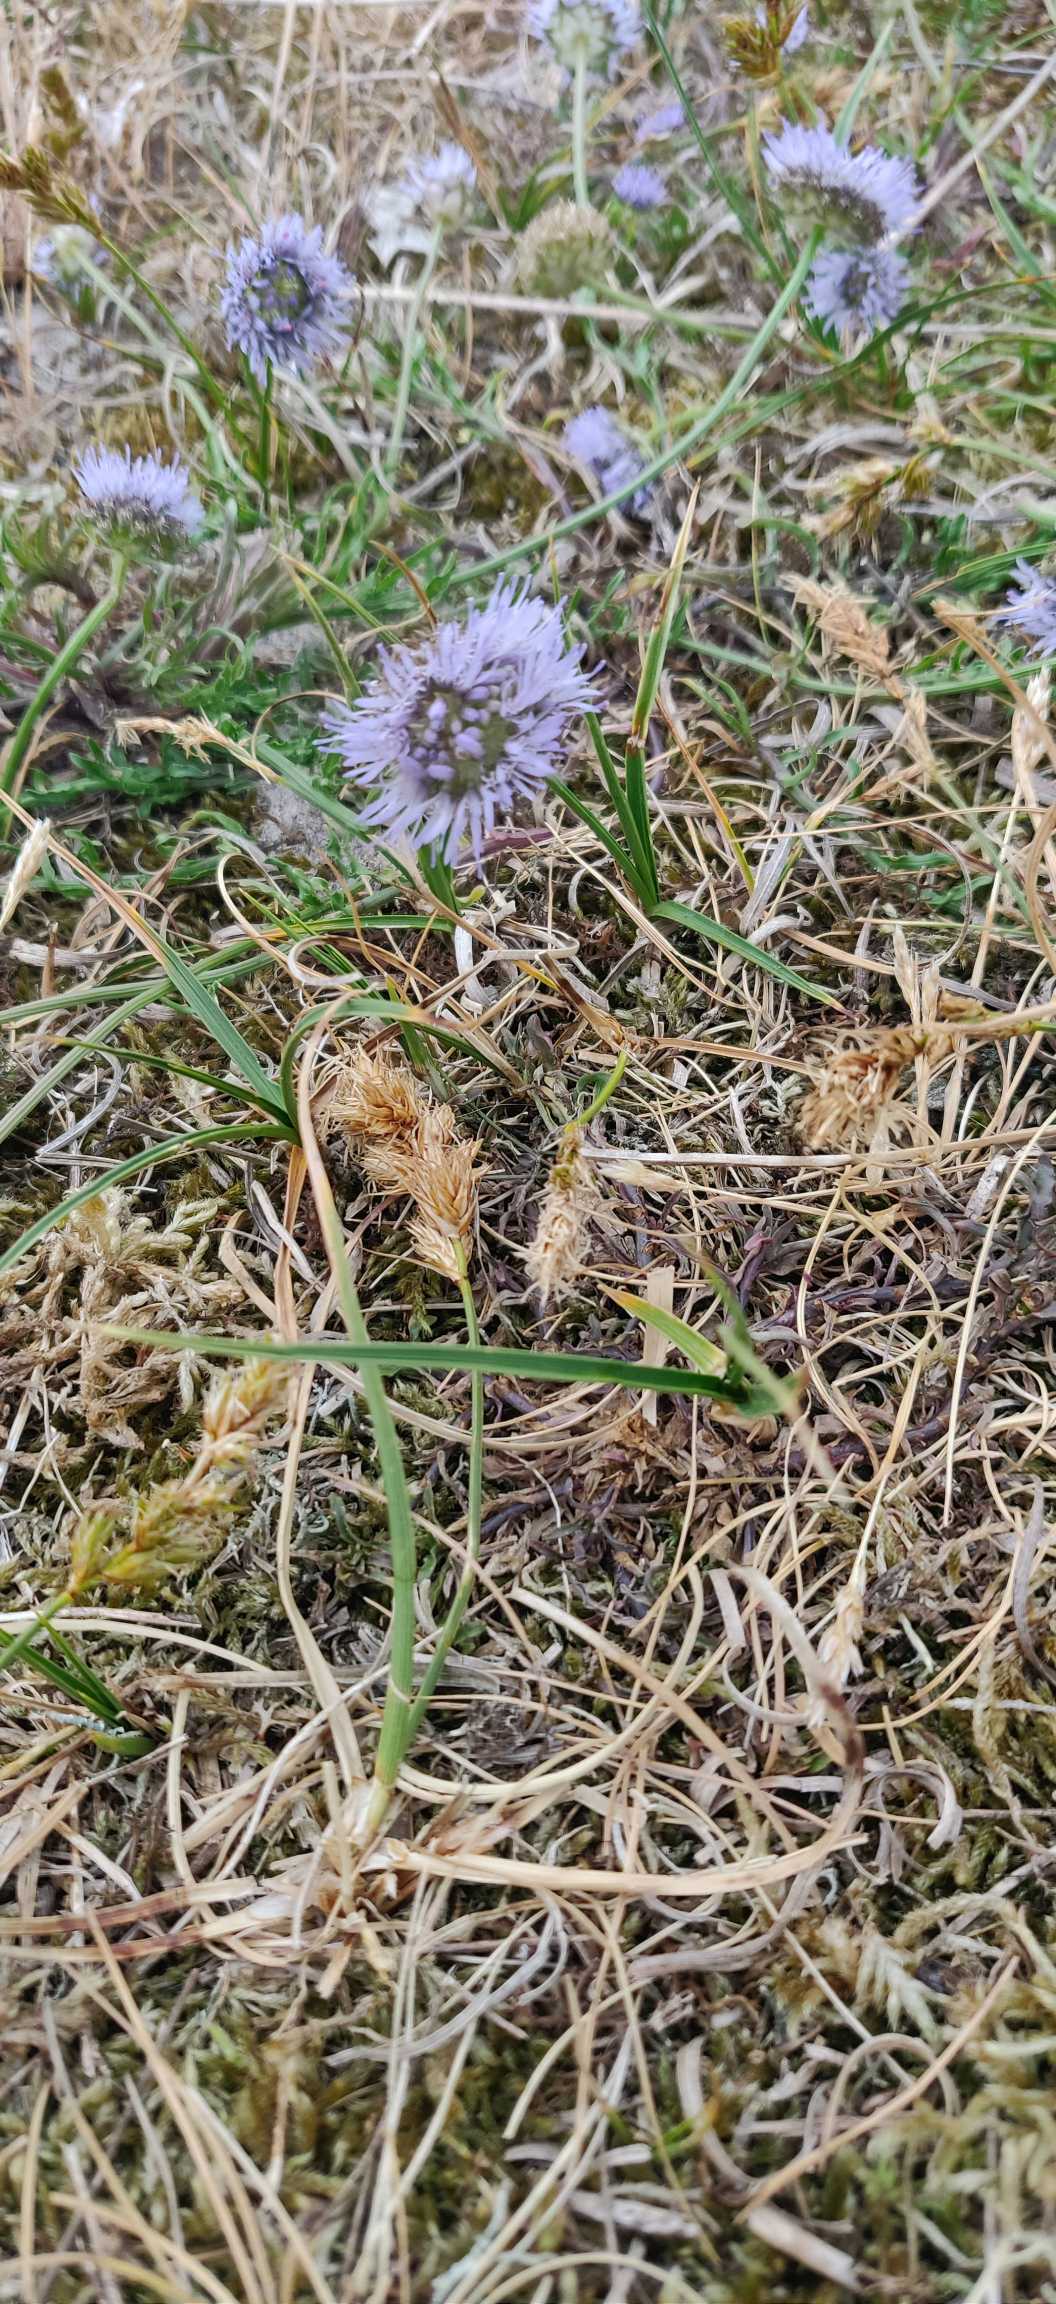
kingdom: Plantae
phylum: Tracheophyta
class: Magnoliopsida
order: Asterales
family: Campanulaceae
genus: Jasione
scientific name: Jasione montana
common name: Blåmunke
